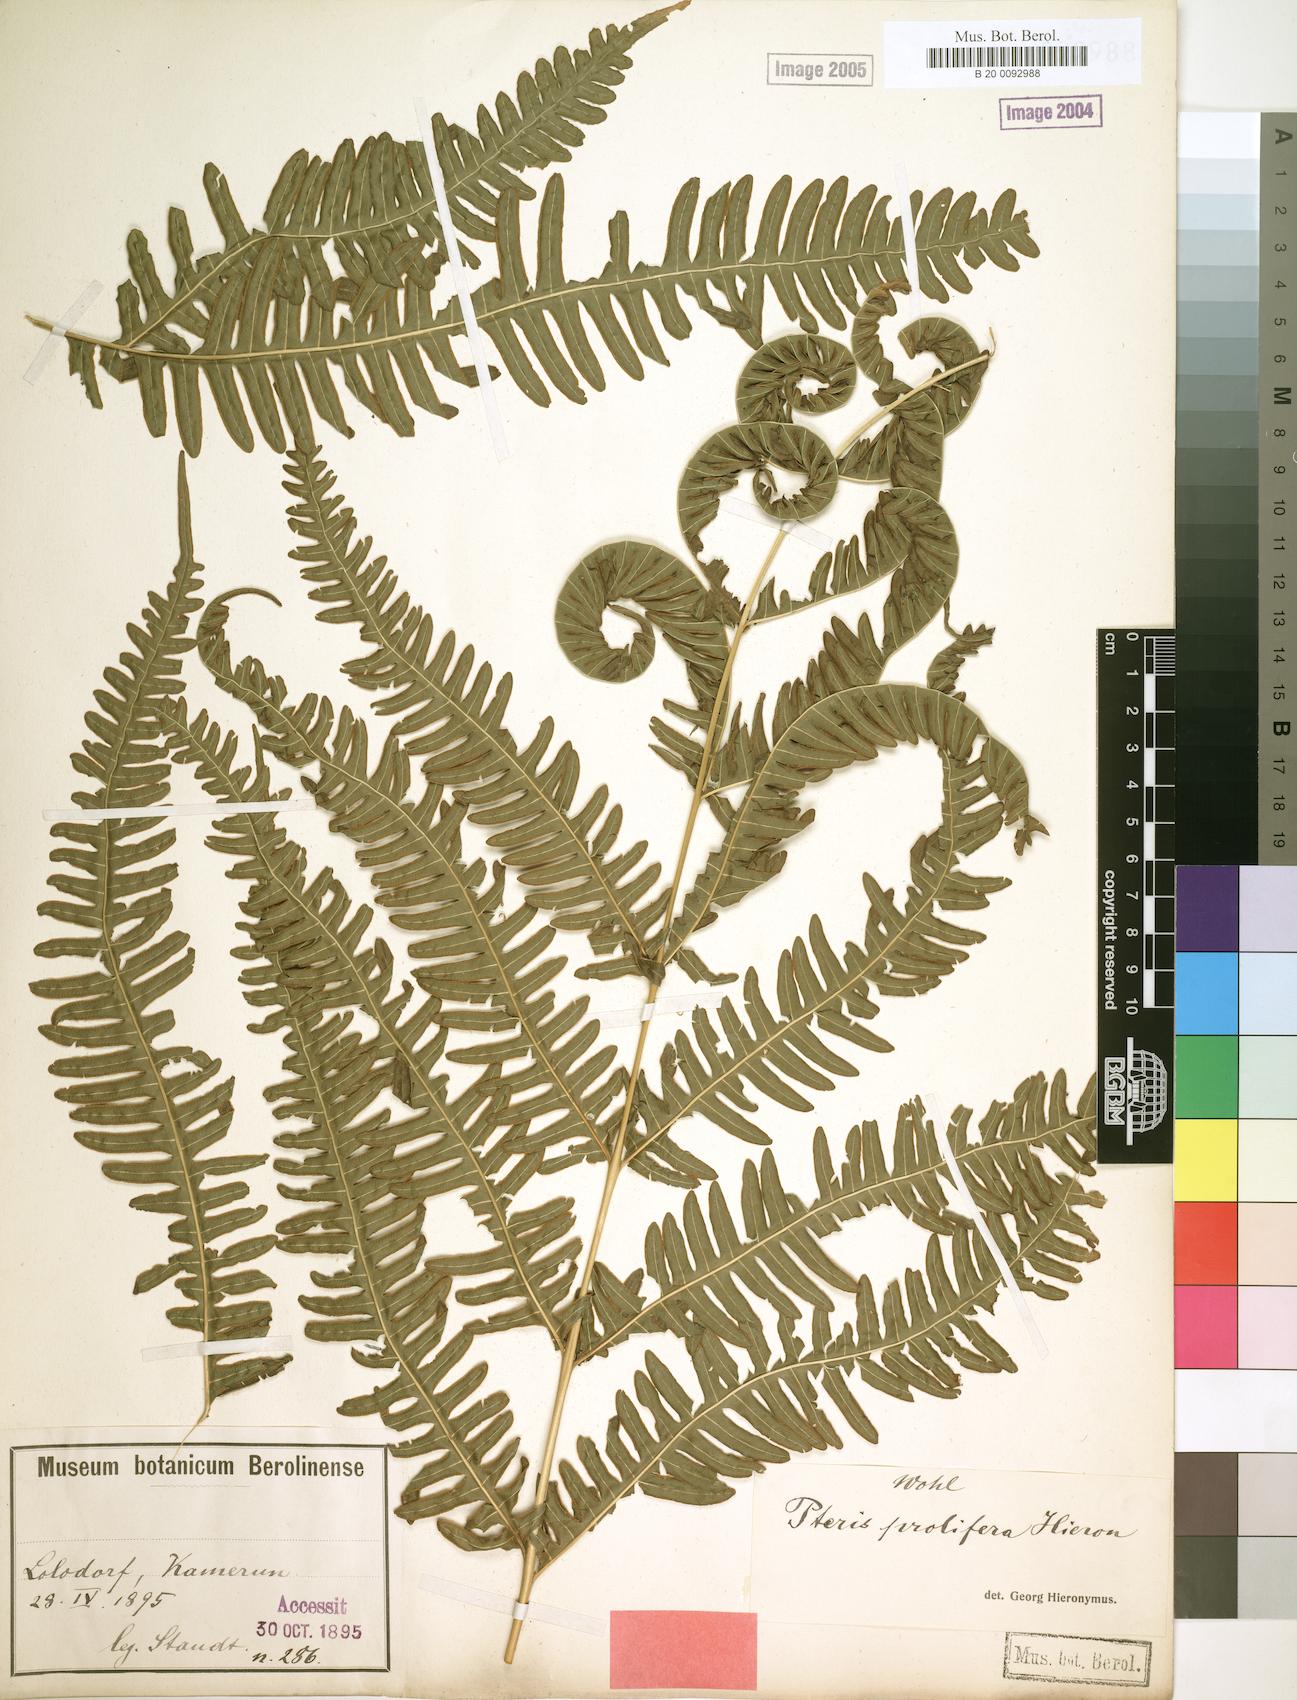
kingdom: Plantae
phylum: Tracheophyta
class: Polypodiopsida
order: Polypodiales
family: Pteridaceae
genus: Pteris
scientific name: Pteris preussii
